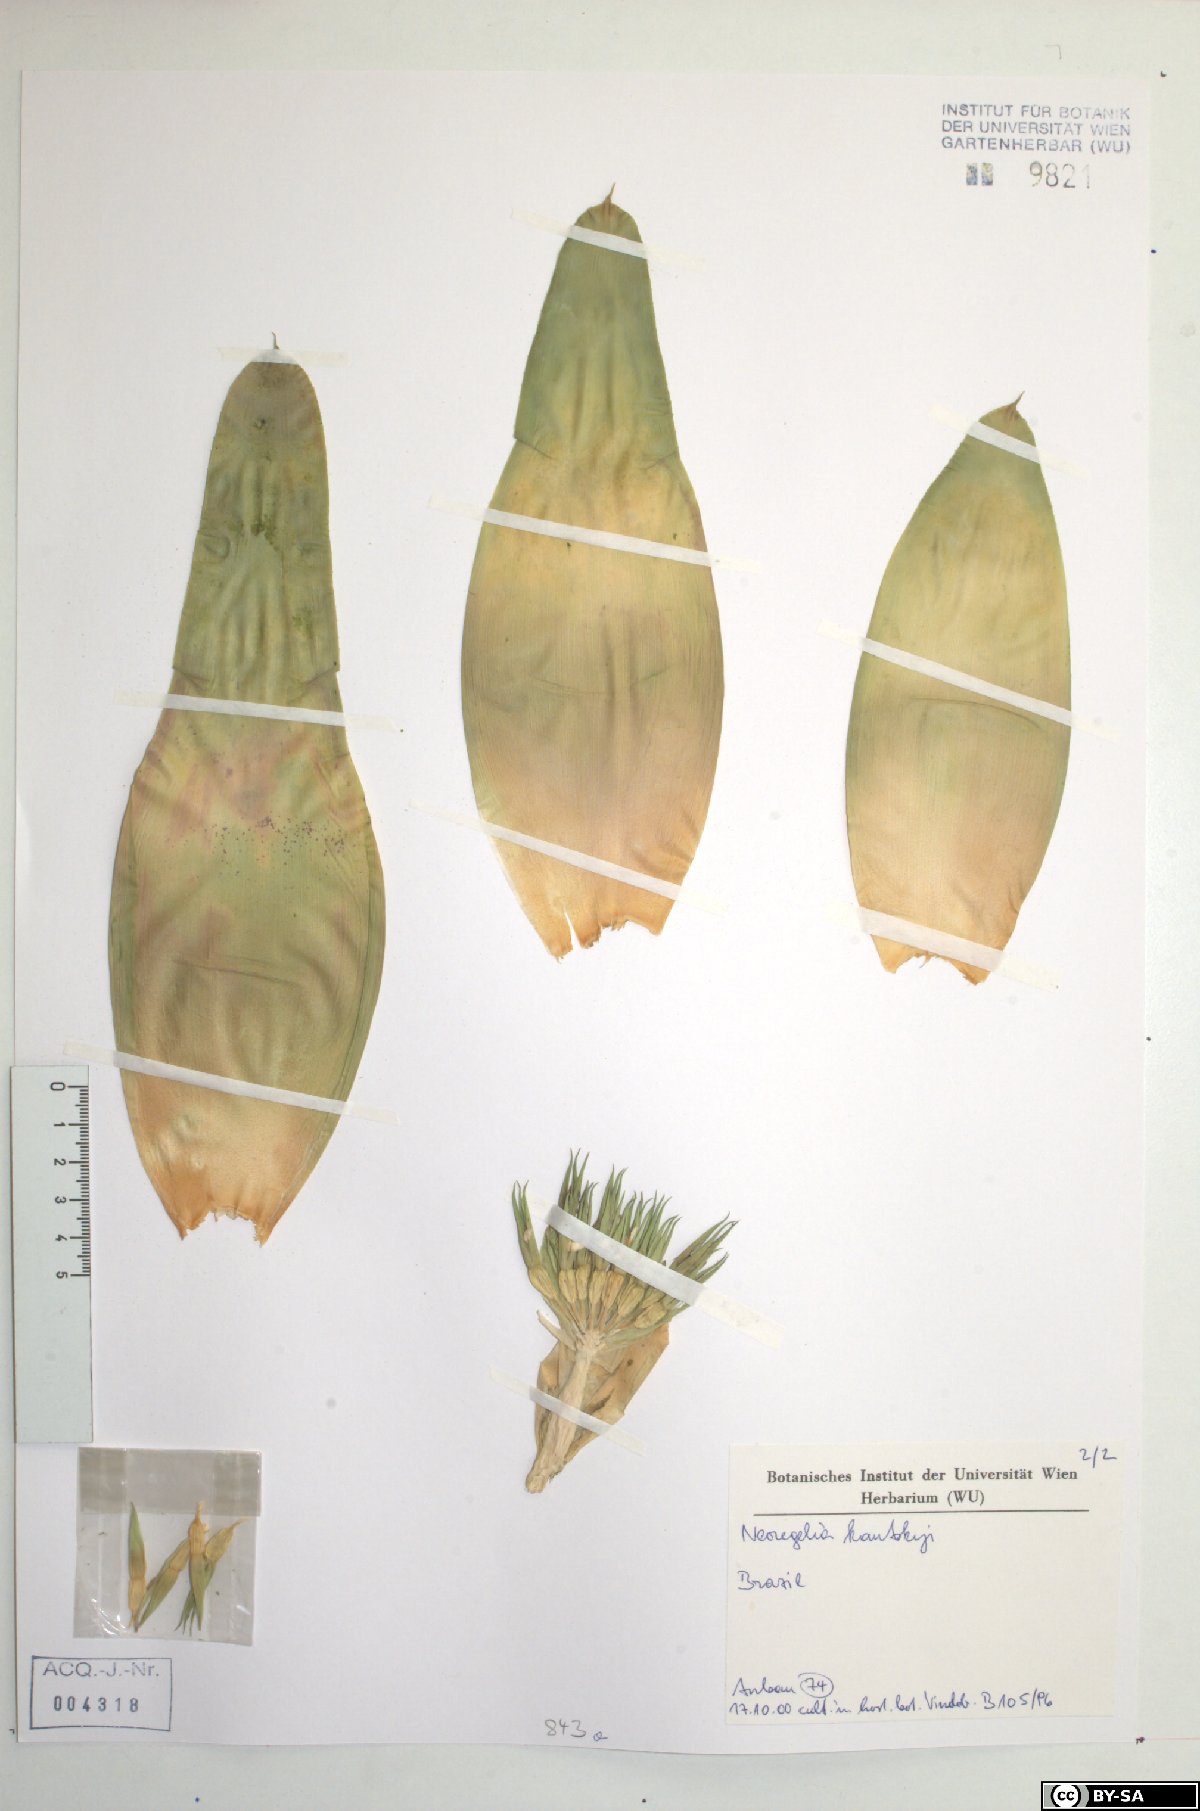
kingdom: Plantae
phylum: Tracheophyta
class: Liliopsida
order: Poales
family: Bromeliaceae
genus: Neoregelia
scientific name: Neoregelia kautskyi
